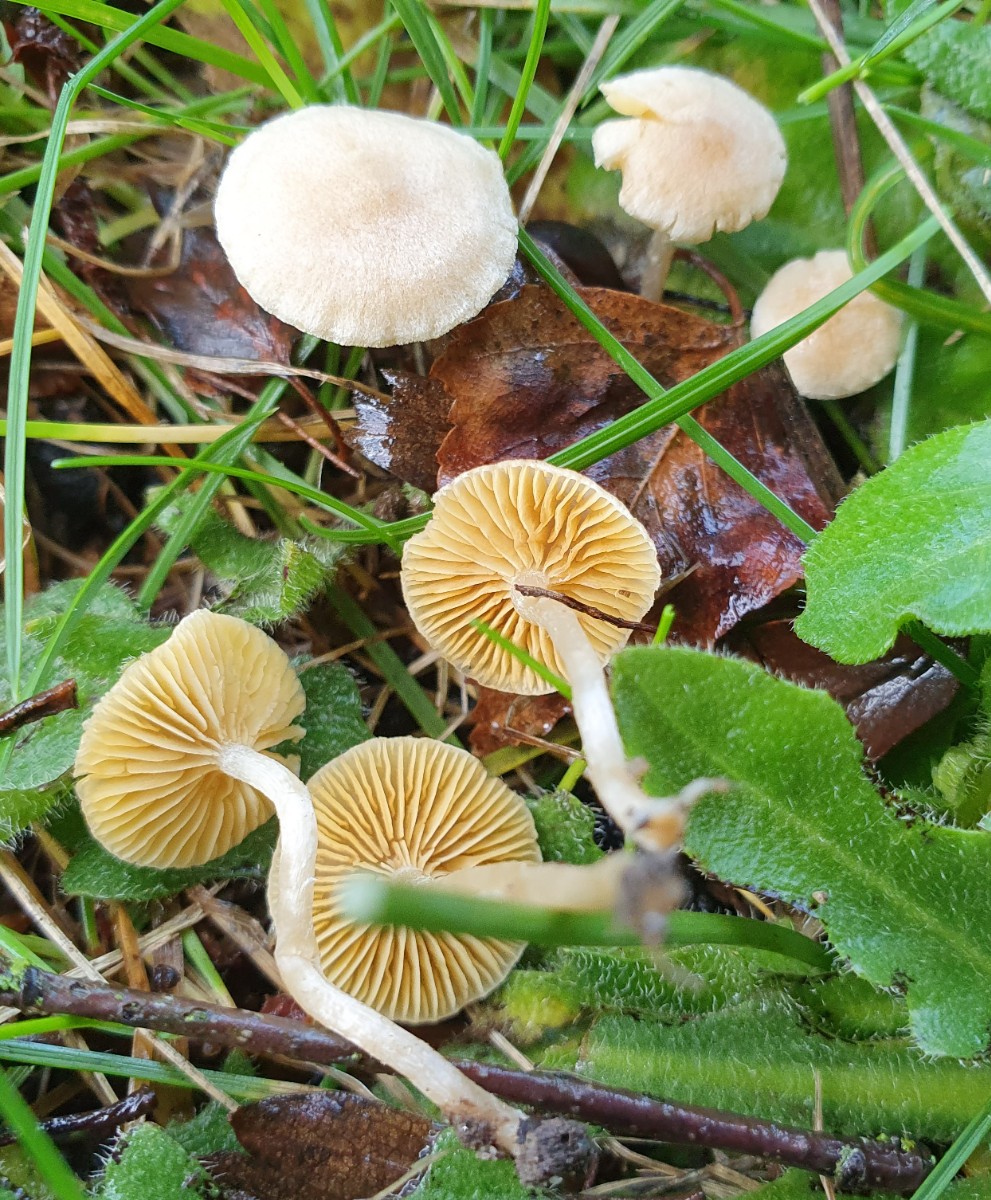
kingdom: Fungi
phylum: Basidiomycota
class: Agaricomycetes
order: Agaricales
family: Tubariaceae
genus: Tubaria
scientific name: Tubaria dispersa
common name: tjørne-fnughat
